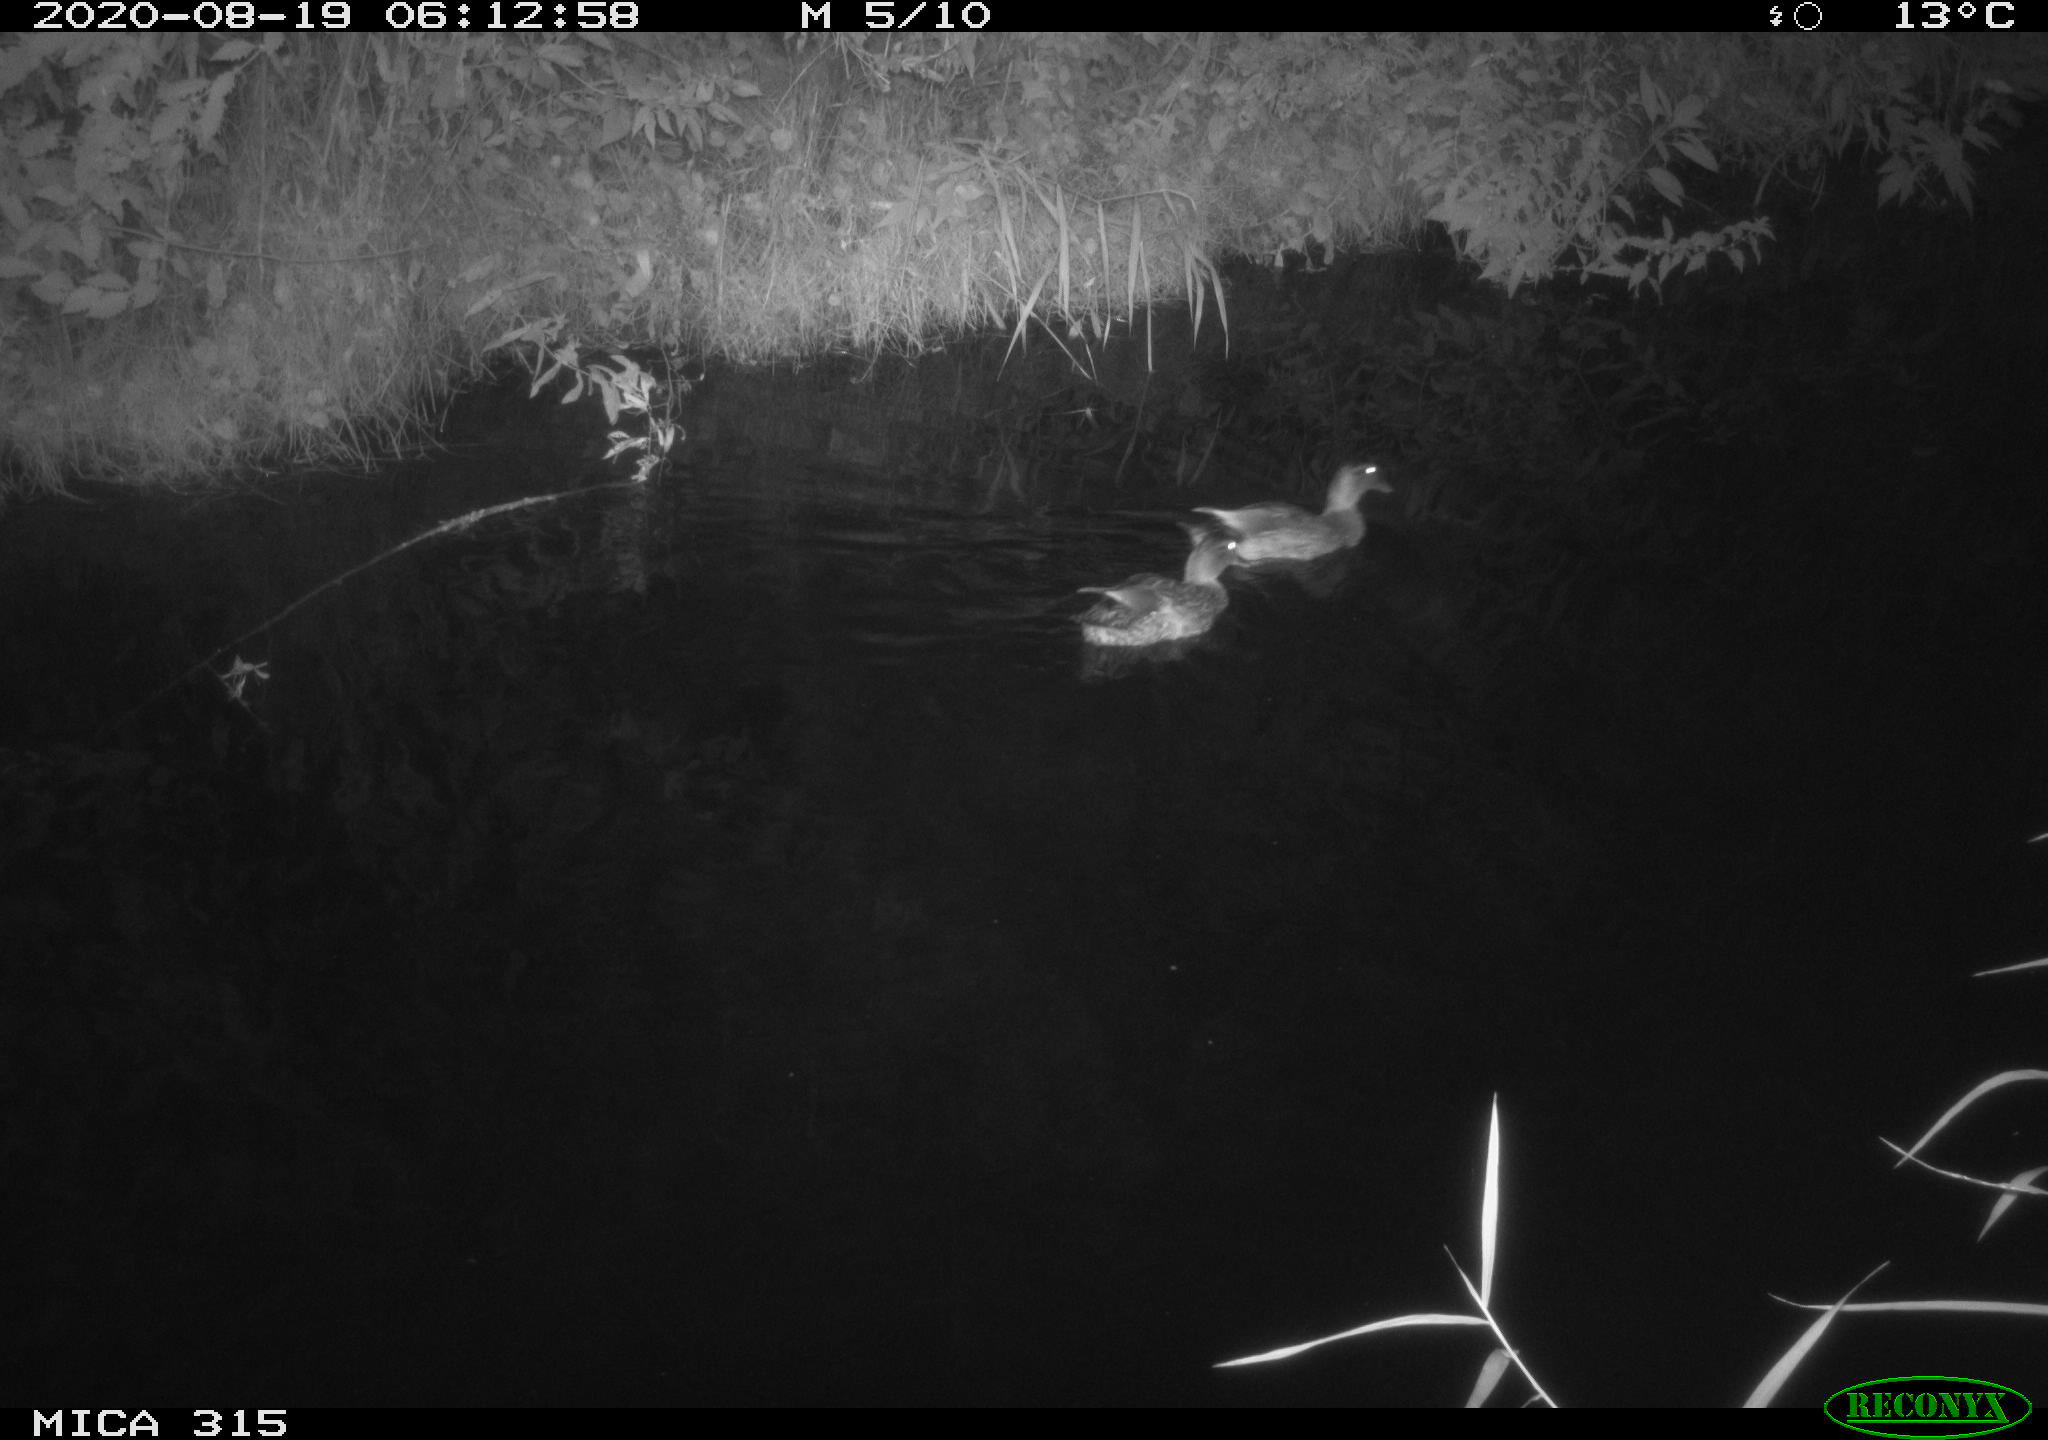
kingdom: Animalia
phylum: Chordata
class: Aves
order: Anseriformes
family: Anatidae
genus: Anas
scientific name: Anas platyrhynchos
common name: Mallard
